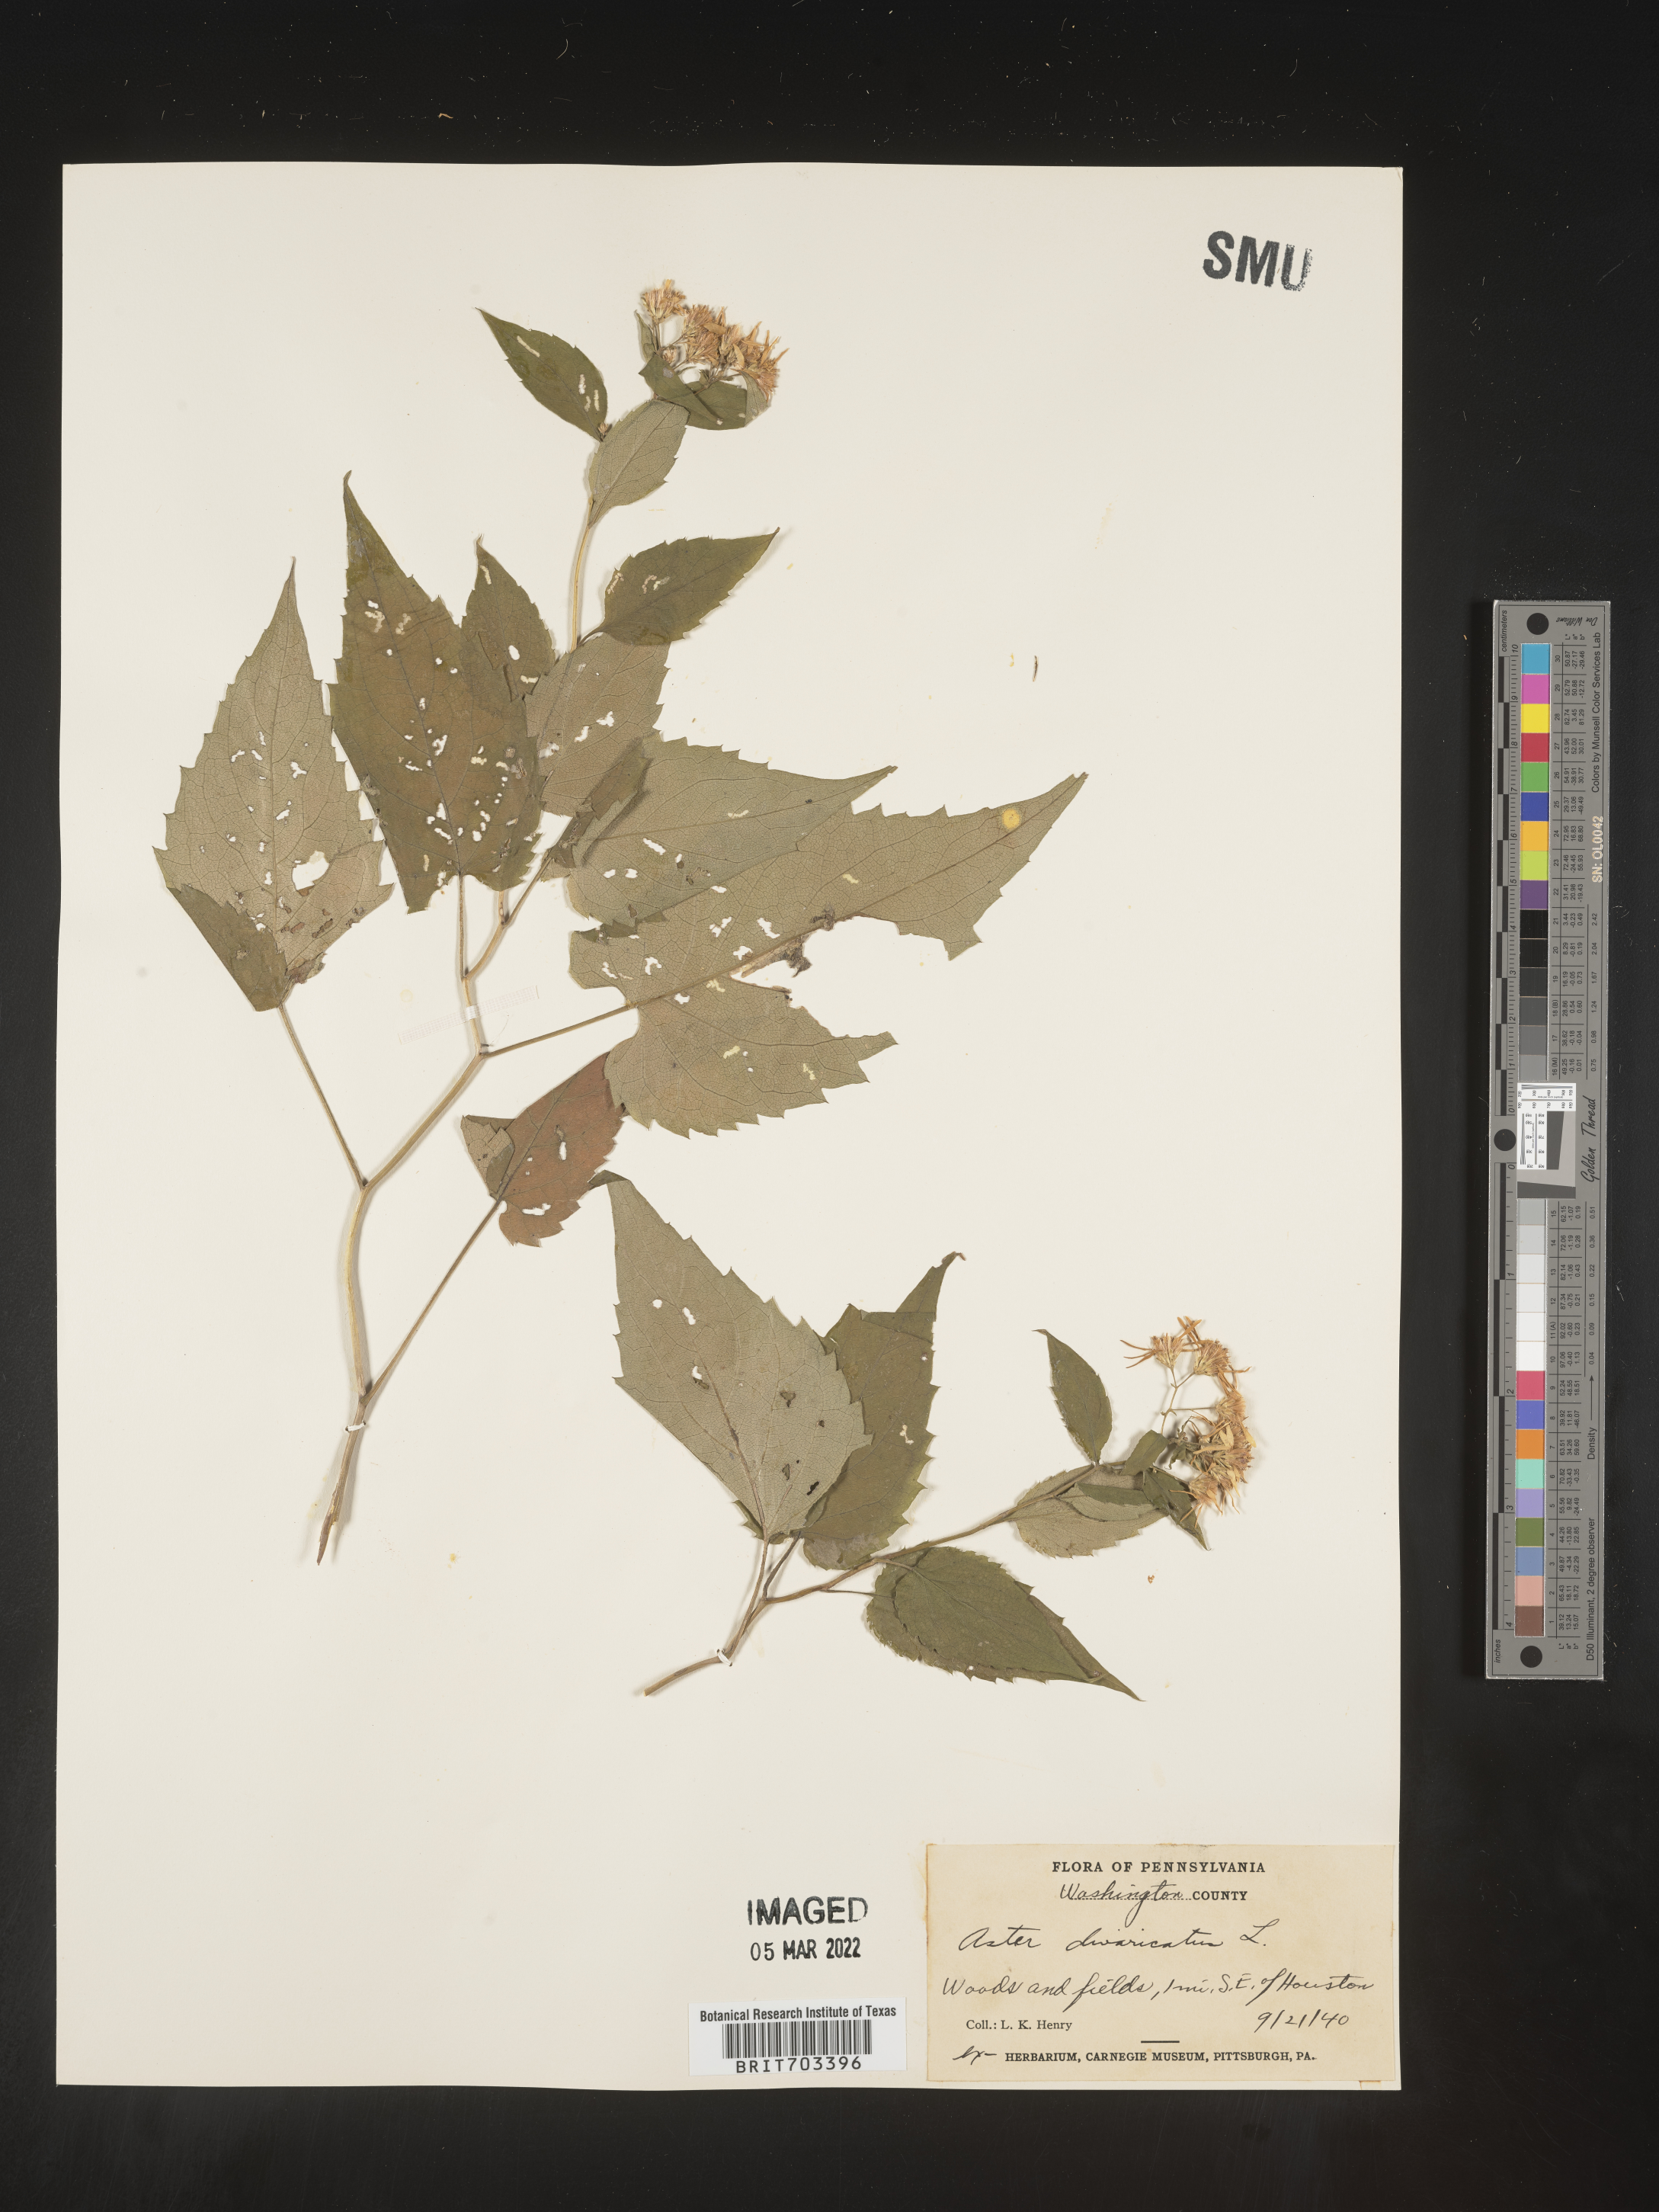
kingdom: Plantae
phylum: Tracheophyta
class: Magnoliopsida
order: Asterales
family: Asteraceae
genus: Eurybia
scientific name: Eurybia divaricata
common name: White wood aster
